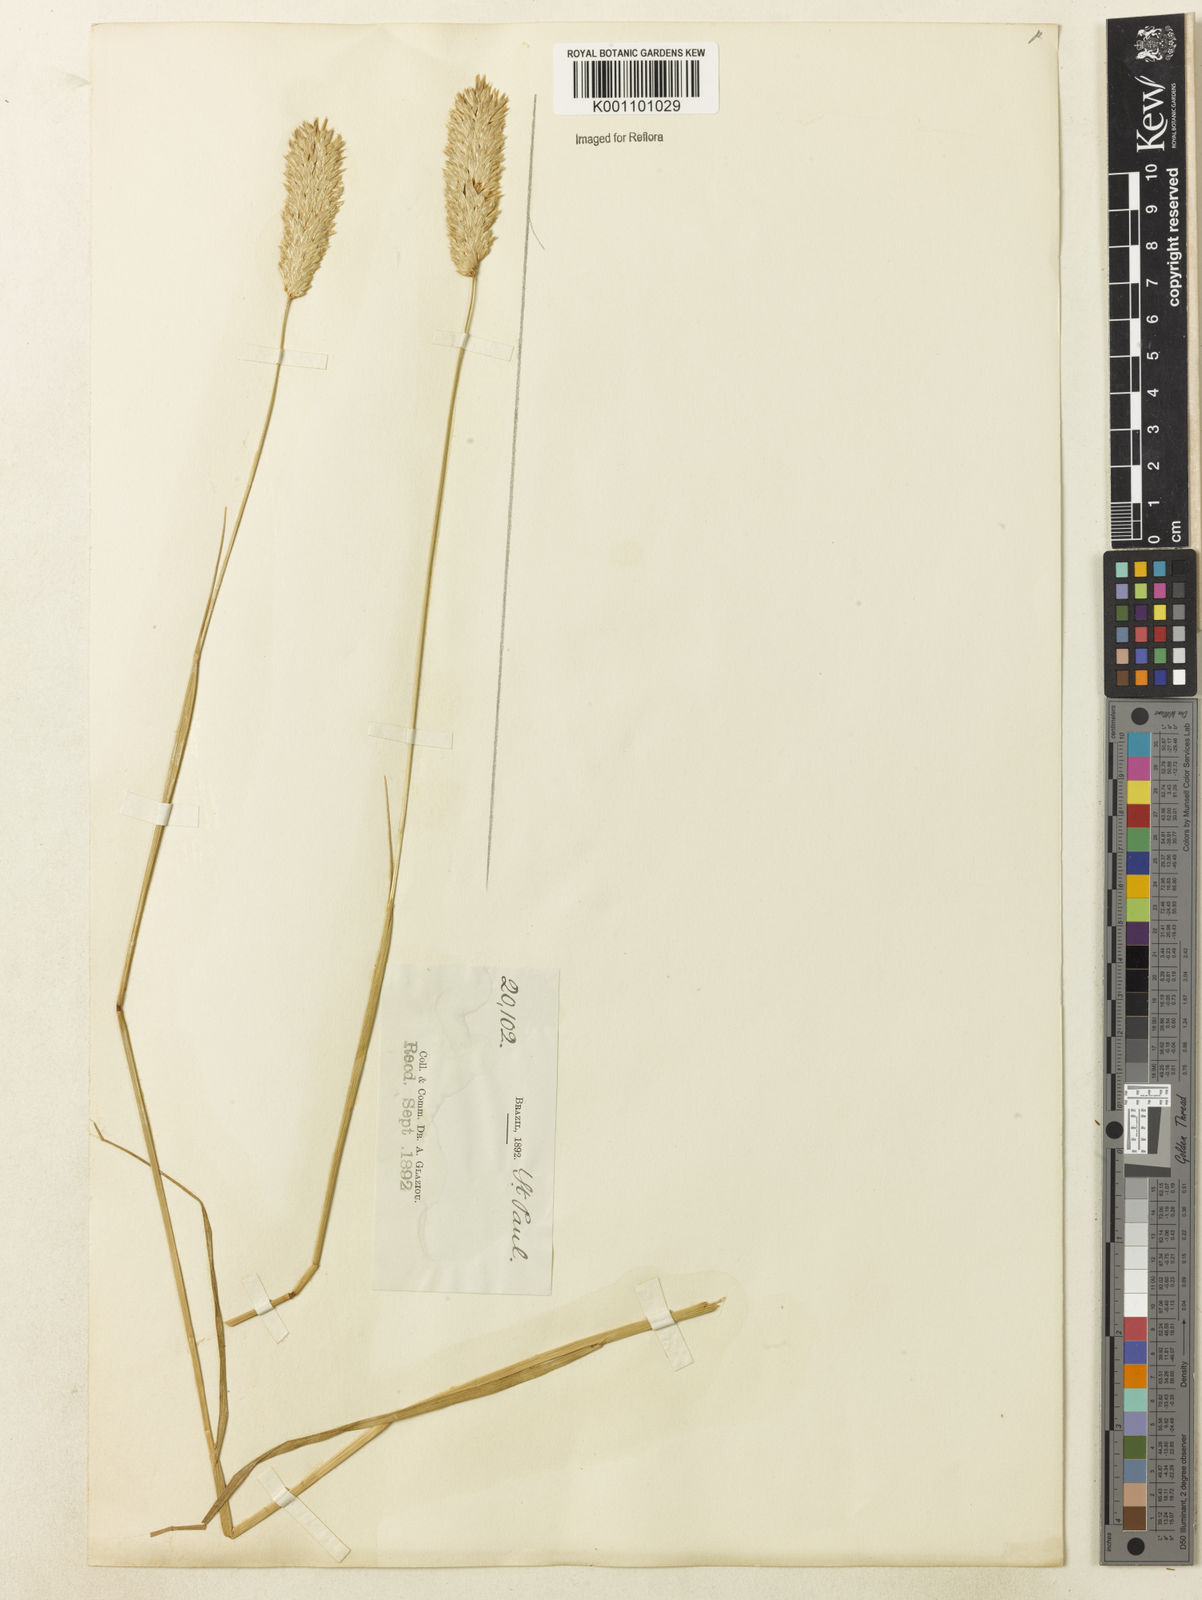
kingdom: Plantae
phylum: Tracheophyta
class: Liliopsida
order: Poales
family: Poaceae
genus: Phalaris
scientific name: Phalaris minor
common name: Littleseed canarygrass
